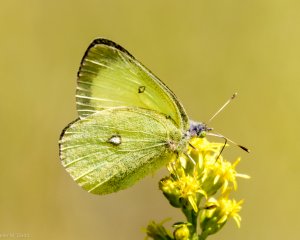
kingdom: Animalia
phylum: Arthropoda
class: Insecta
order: Lepidoptera
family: Pieridae
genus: Colias
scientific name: Colias interior
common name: Pink-edged Sulphur
